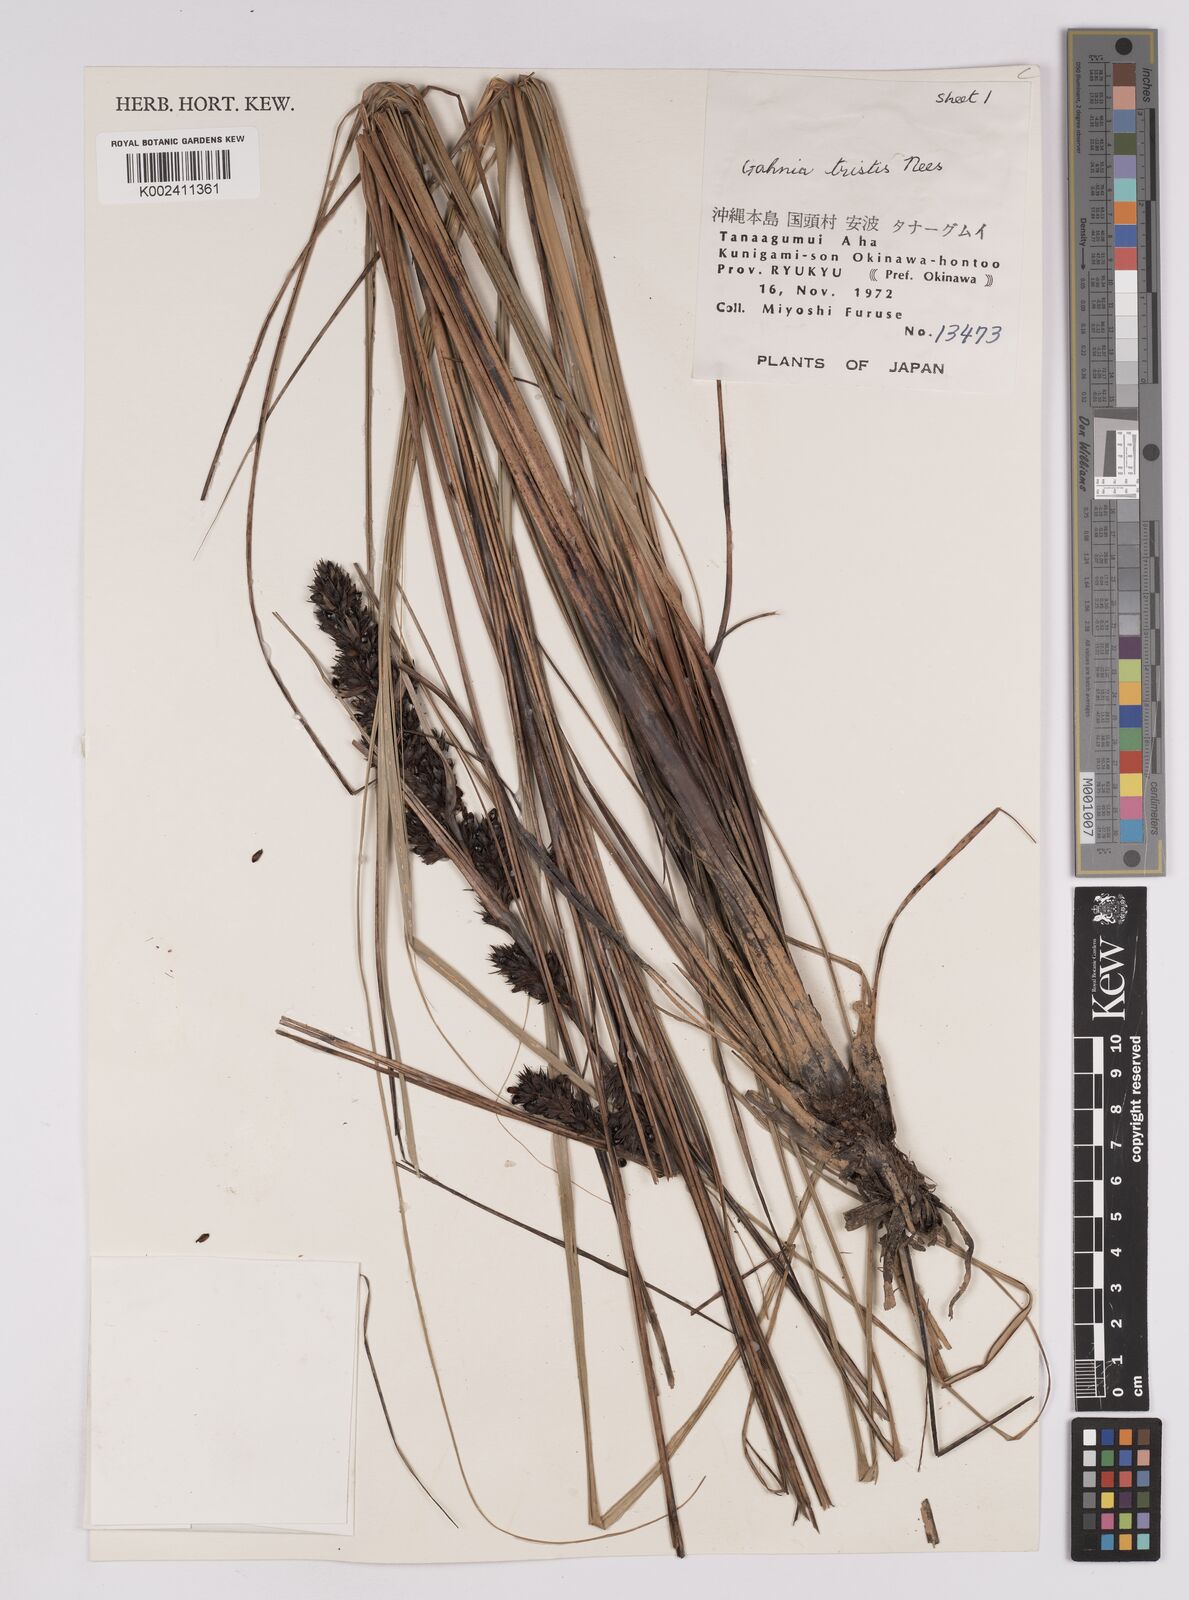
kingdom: Plantae
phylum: Tracheophyta
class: Liliopsida
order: Poales
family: Cyperaceae
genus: Gahnia
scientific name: Gahnia tristis
